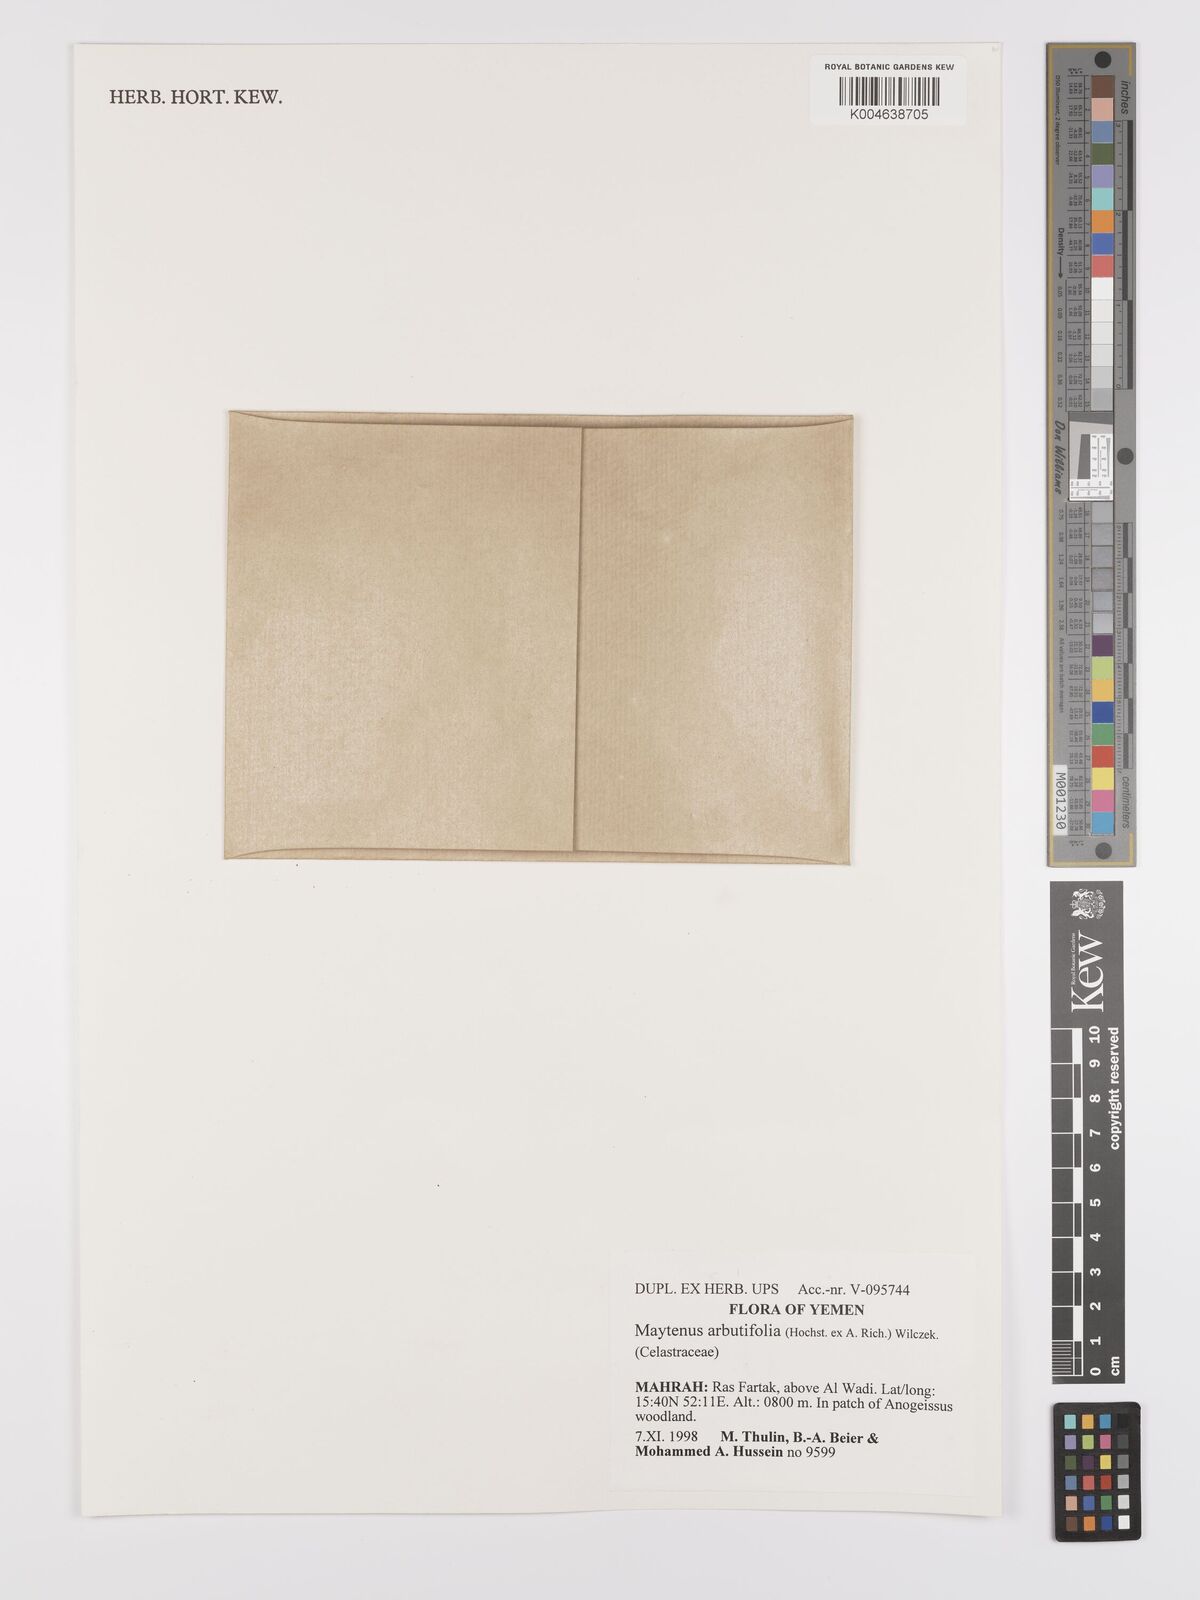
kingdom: Plantae
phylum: Tracheophyta
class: Magnoliopsida
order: Celastrales
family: Celastraceae
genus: Gymnosporia
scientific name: Gymnosporia arbutifolia
